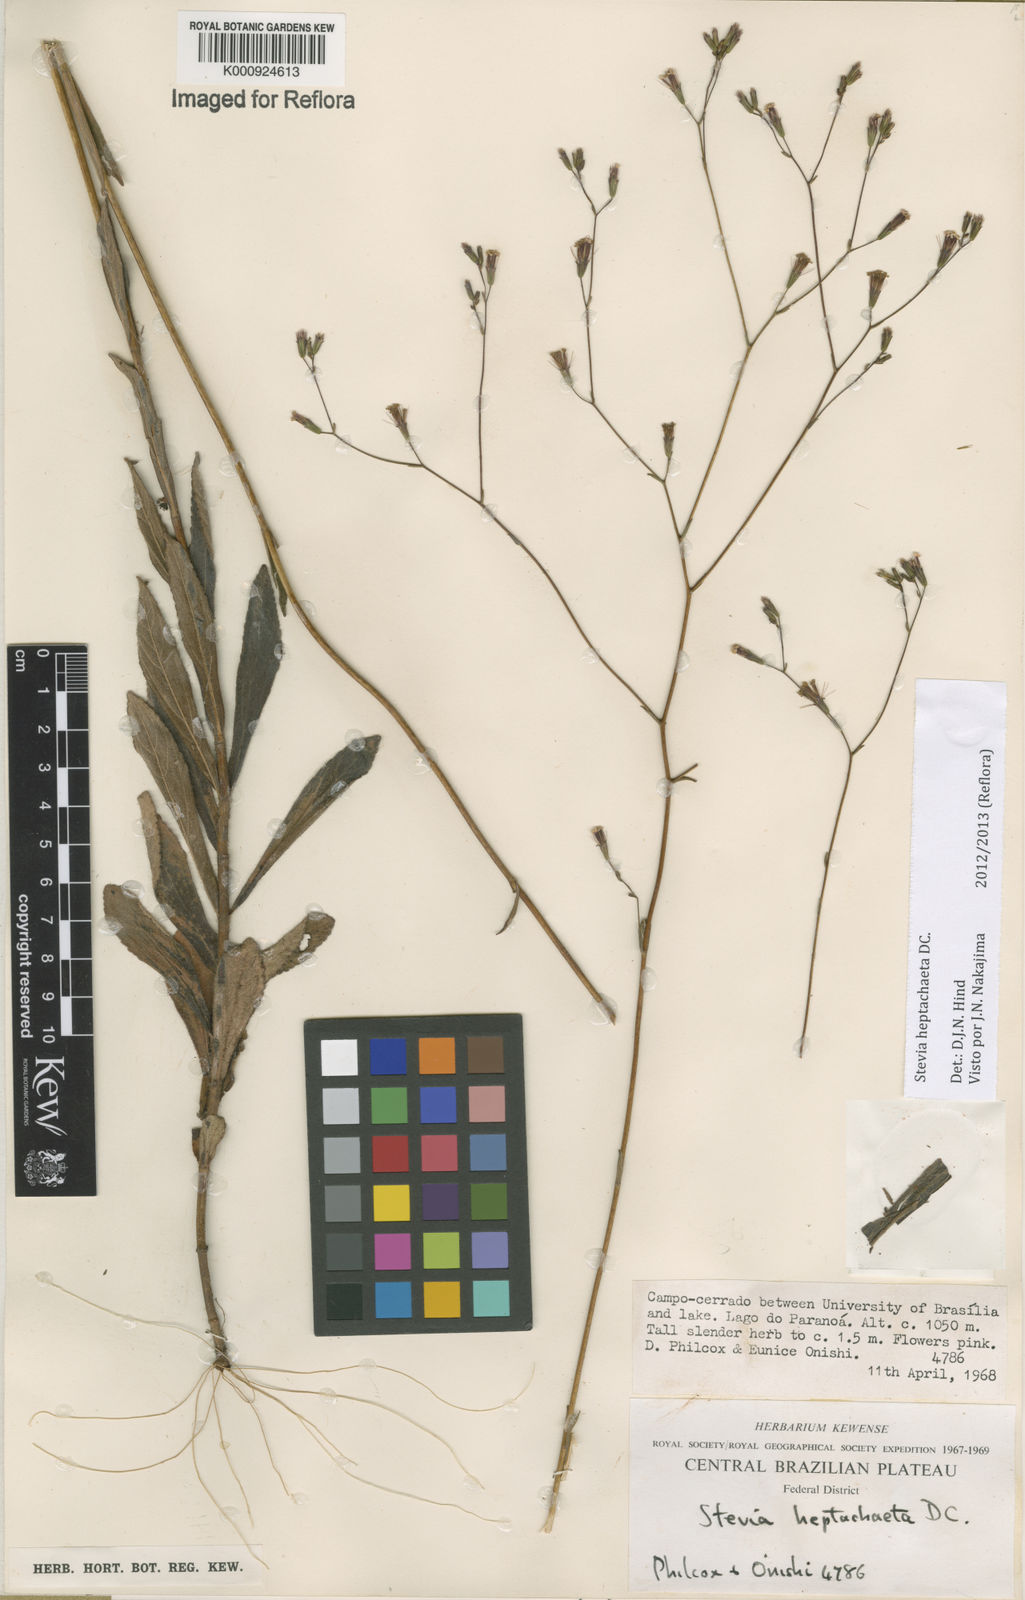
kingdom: Plantae
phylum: Tracheophyta
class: Magnoliopsida
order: Asterales
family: Asteraceae
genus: Stevia
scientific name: Stevia heptachaeta
